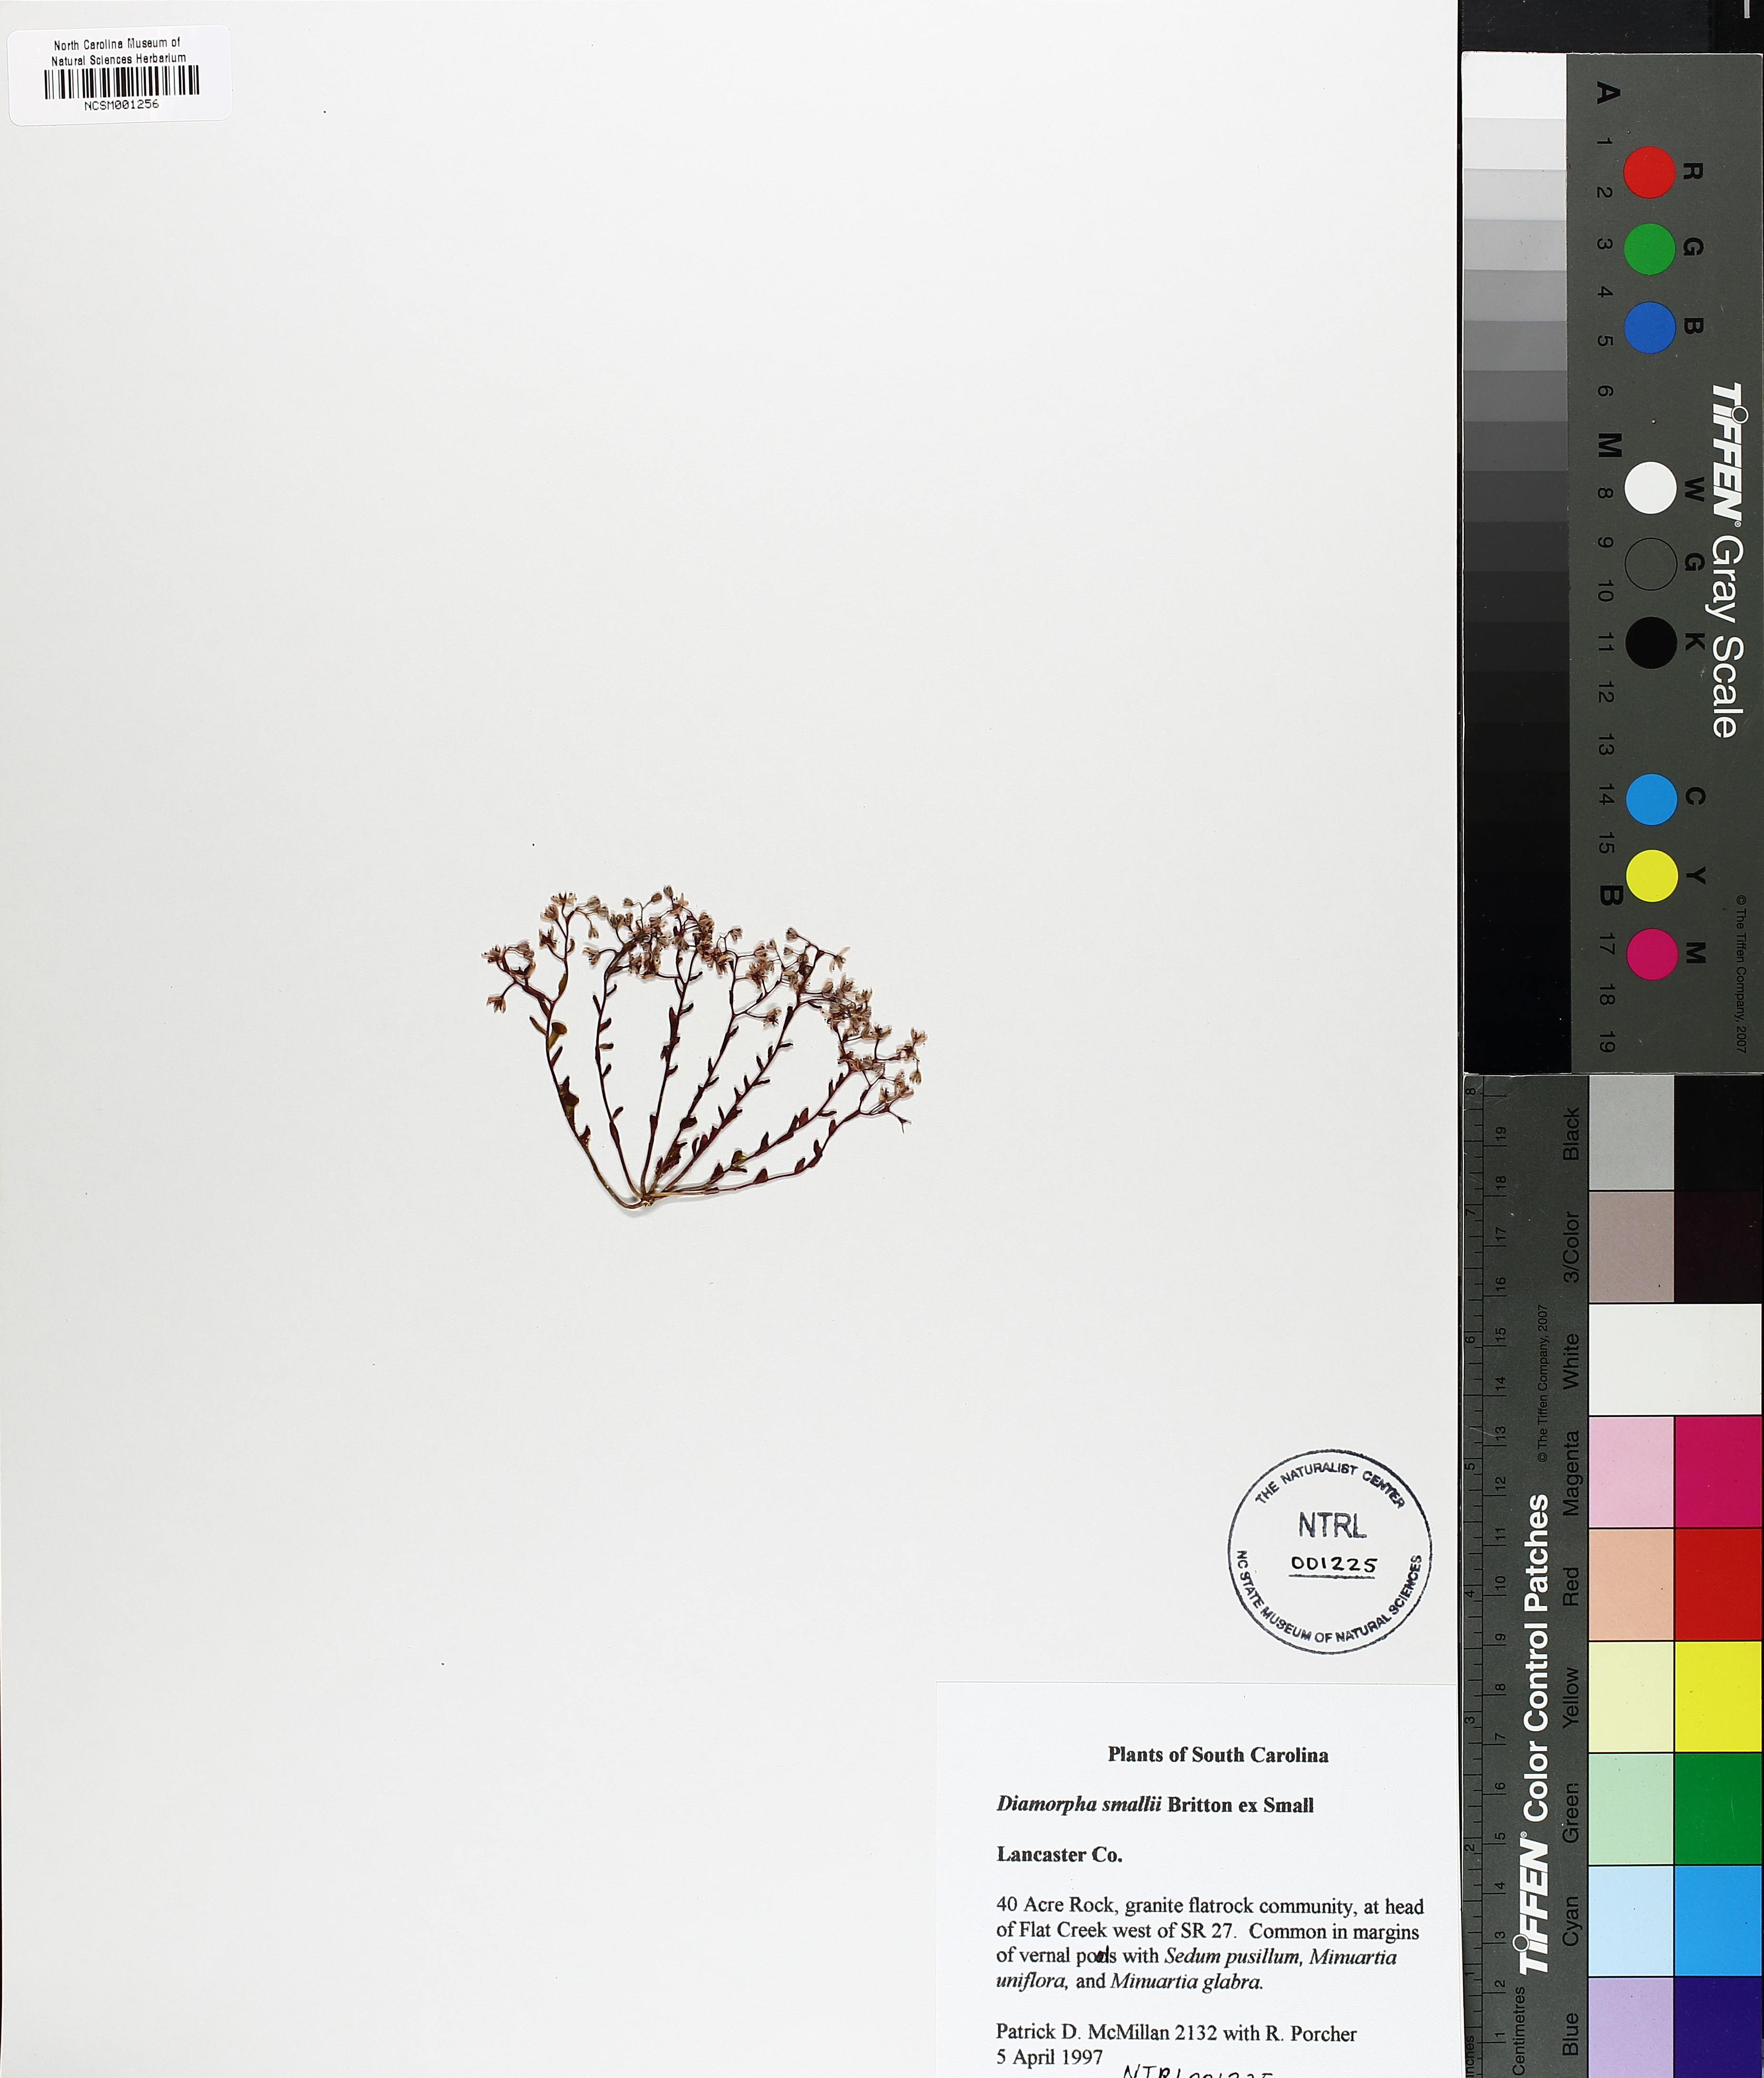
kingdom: Plantae
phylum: Tracheophyta
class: Magnoliopsida
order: Saxifragales
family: Crassulaceae
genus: Sedum
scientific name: Sedum Diamorpha smallii
